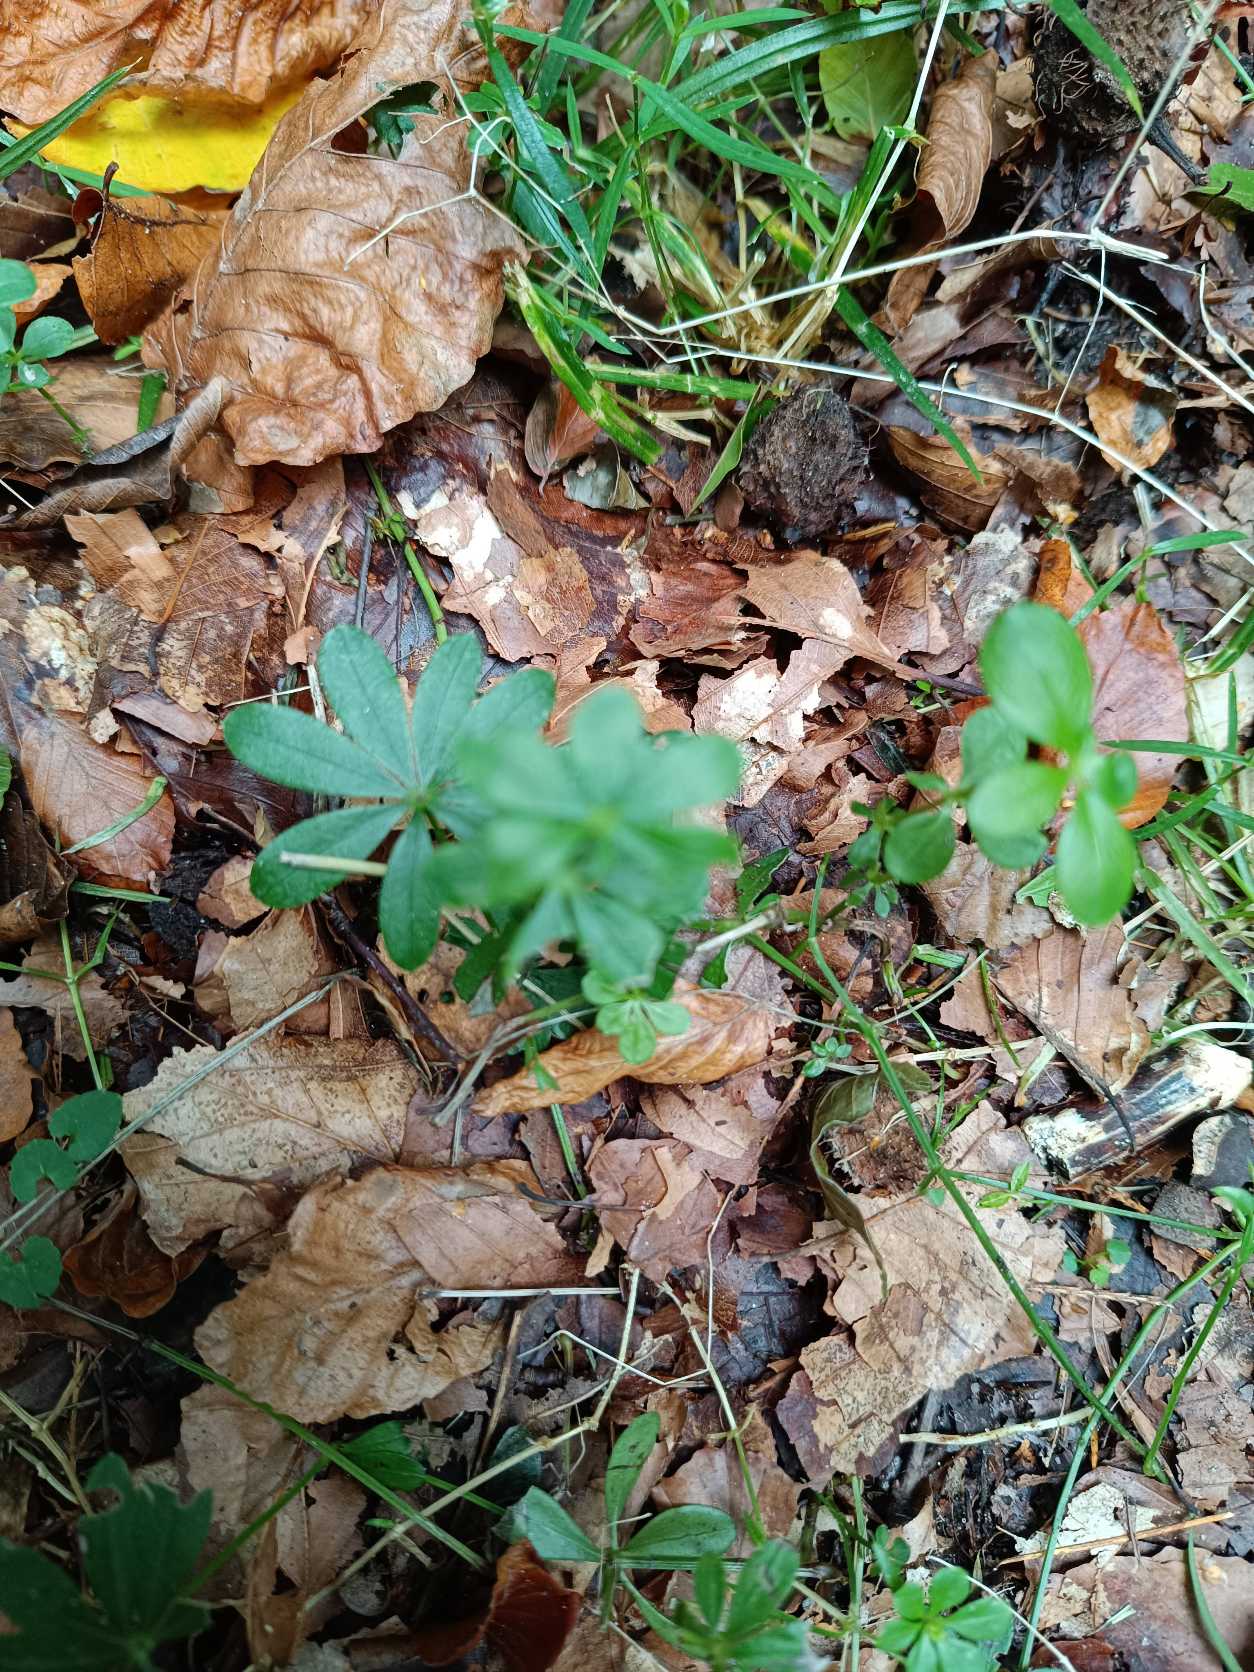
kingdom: Plantae
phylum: Tracheophyta
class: Magnoliopsida
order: Gentianales
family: Rubiaceae
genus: Galium
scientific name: Galium odoratum
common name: Skovmærke
